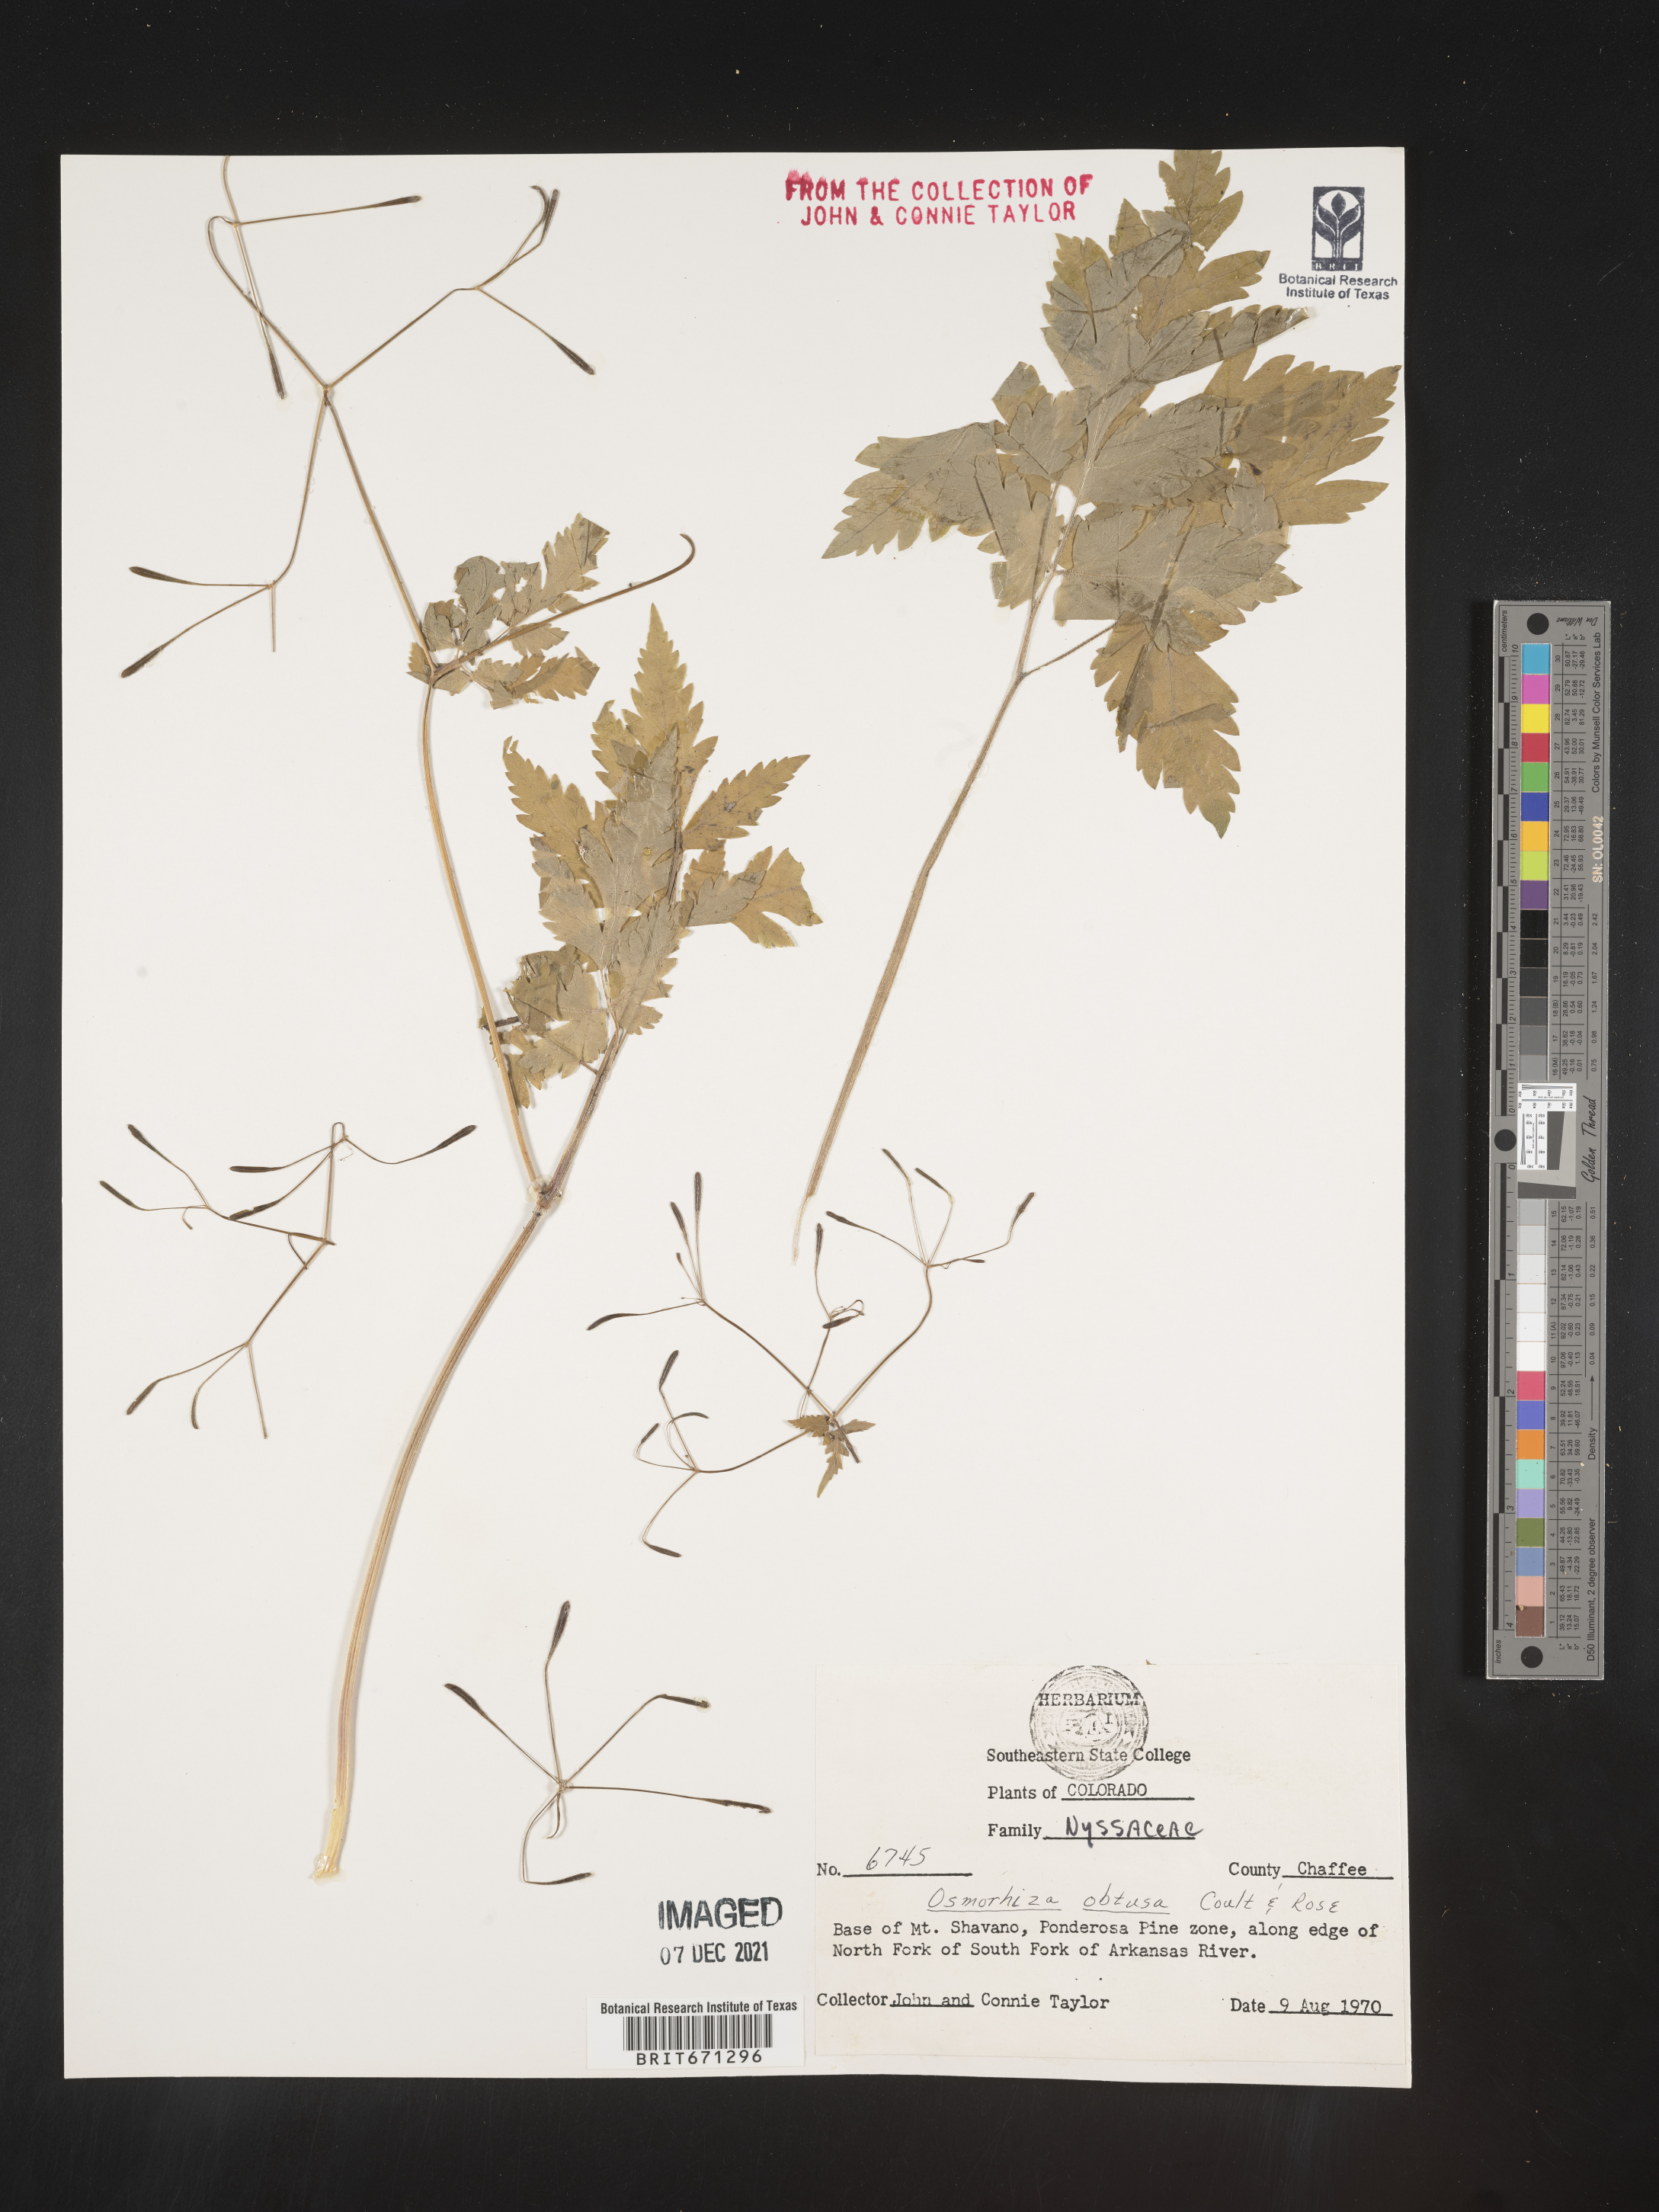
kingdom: Plantae
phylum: Tracheophyta
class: Magnoliopsida
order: Apiales
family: Apiaceae
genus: Osmorhiza
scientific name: Osmorhiza depauperata
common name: Blunt sweet cicely
